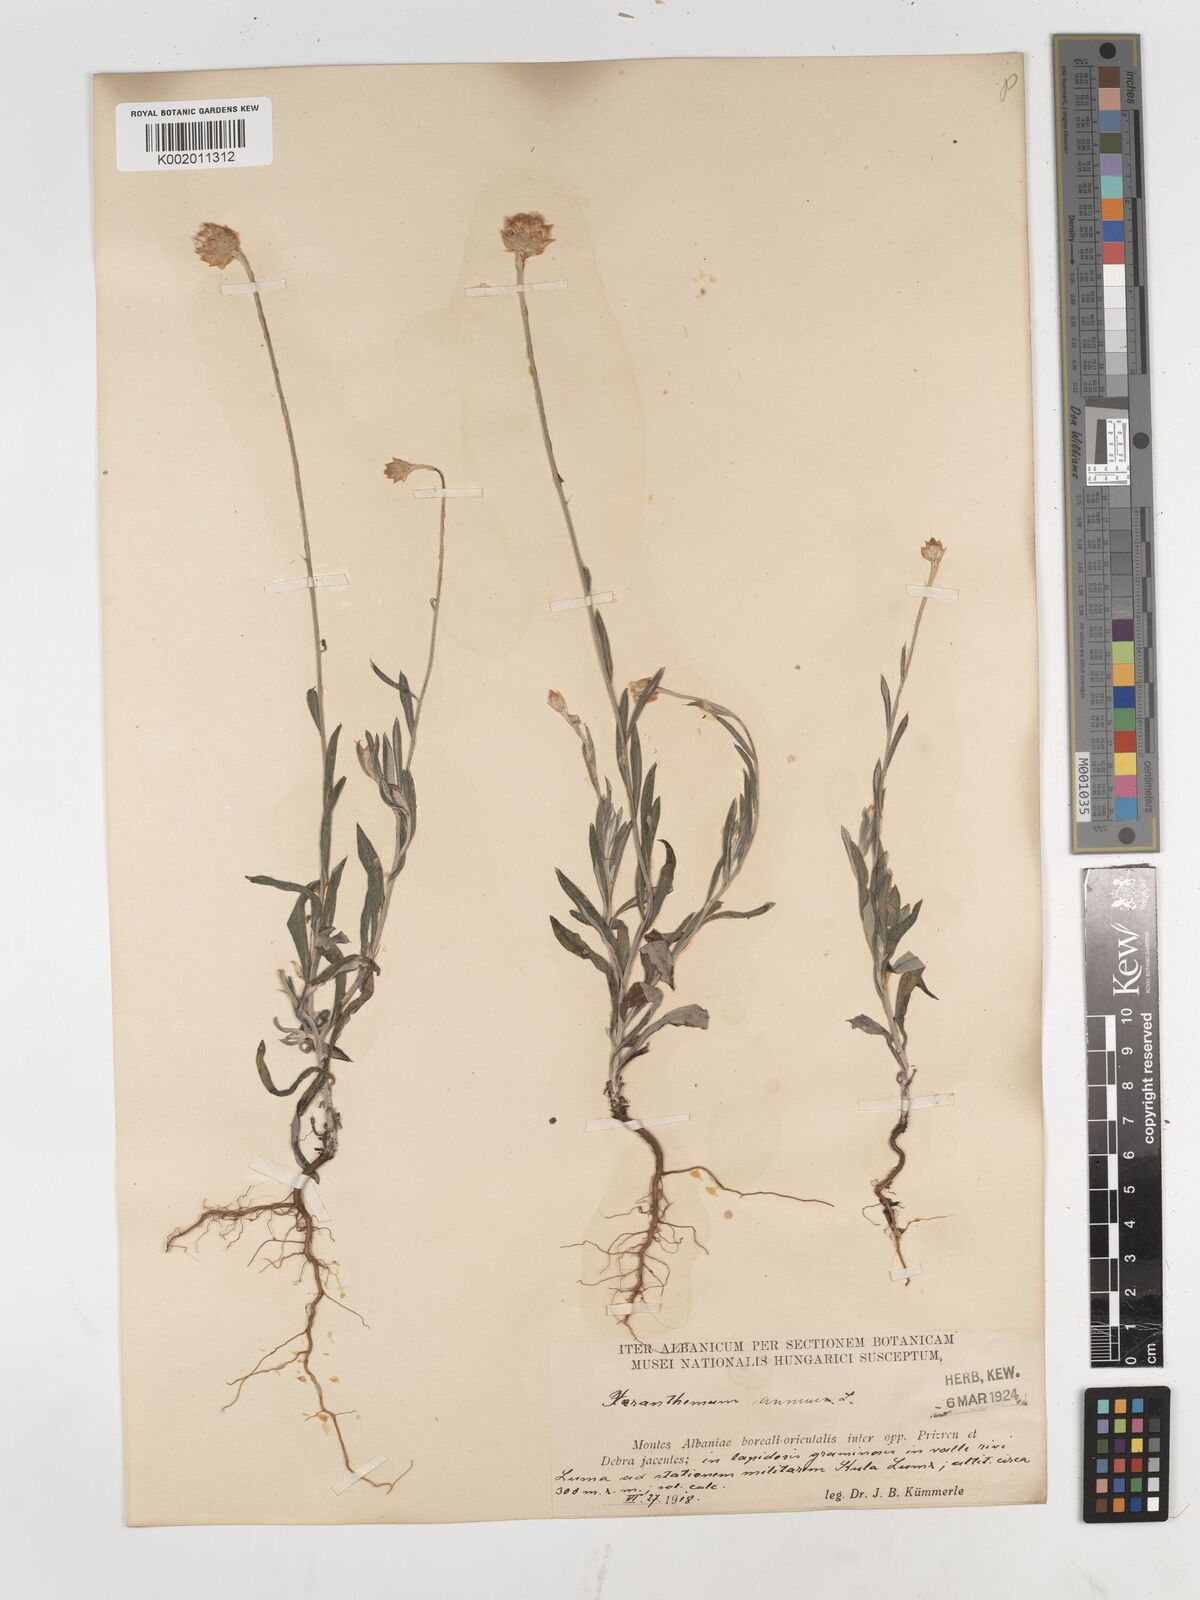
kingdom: Plantae
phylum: Tracheophyta
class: Magnoliopsida
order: Asterales
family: Asteraceae
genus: Xeranthemum
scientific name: Xeranthemum annuum
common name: Immortelle
